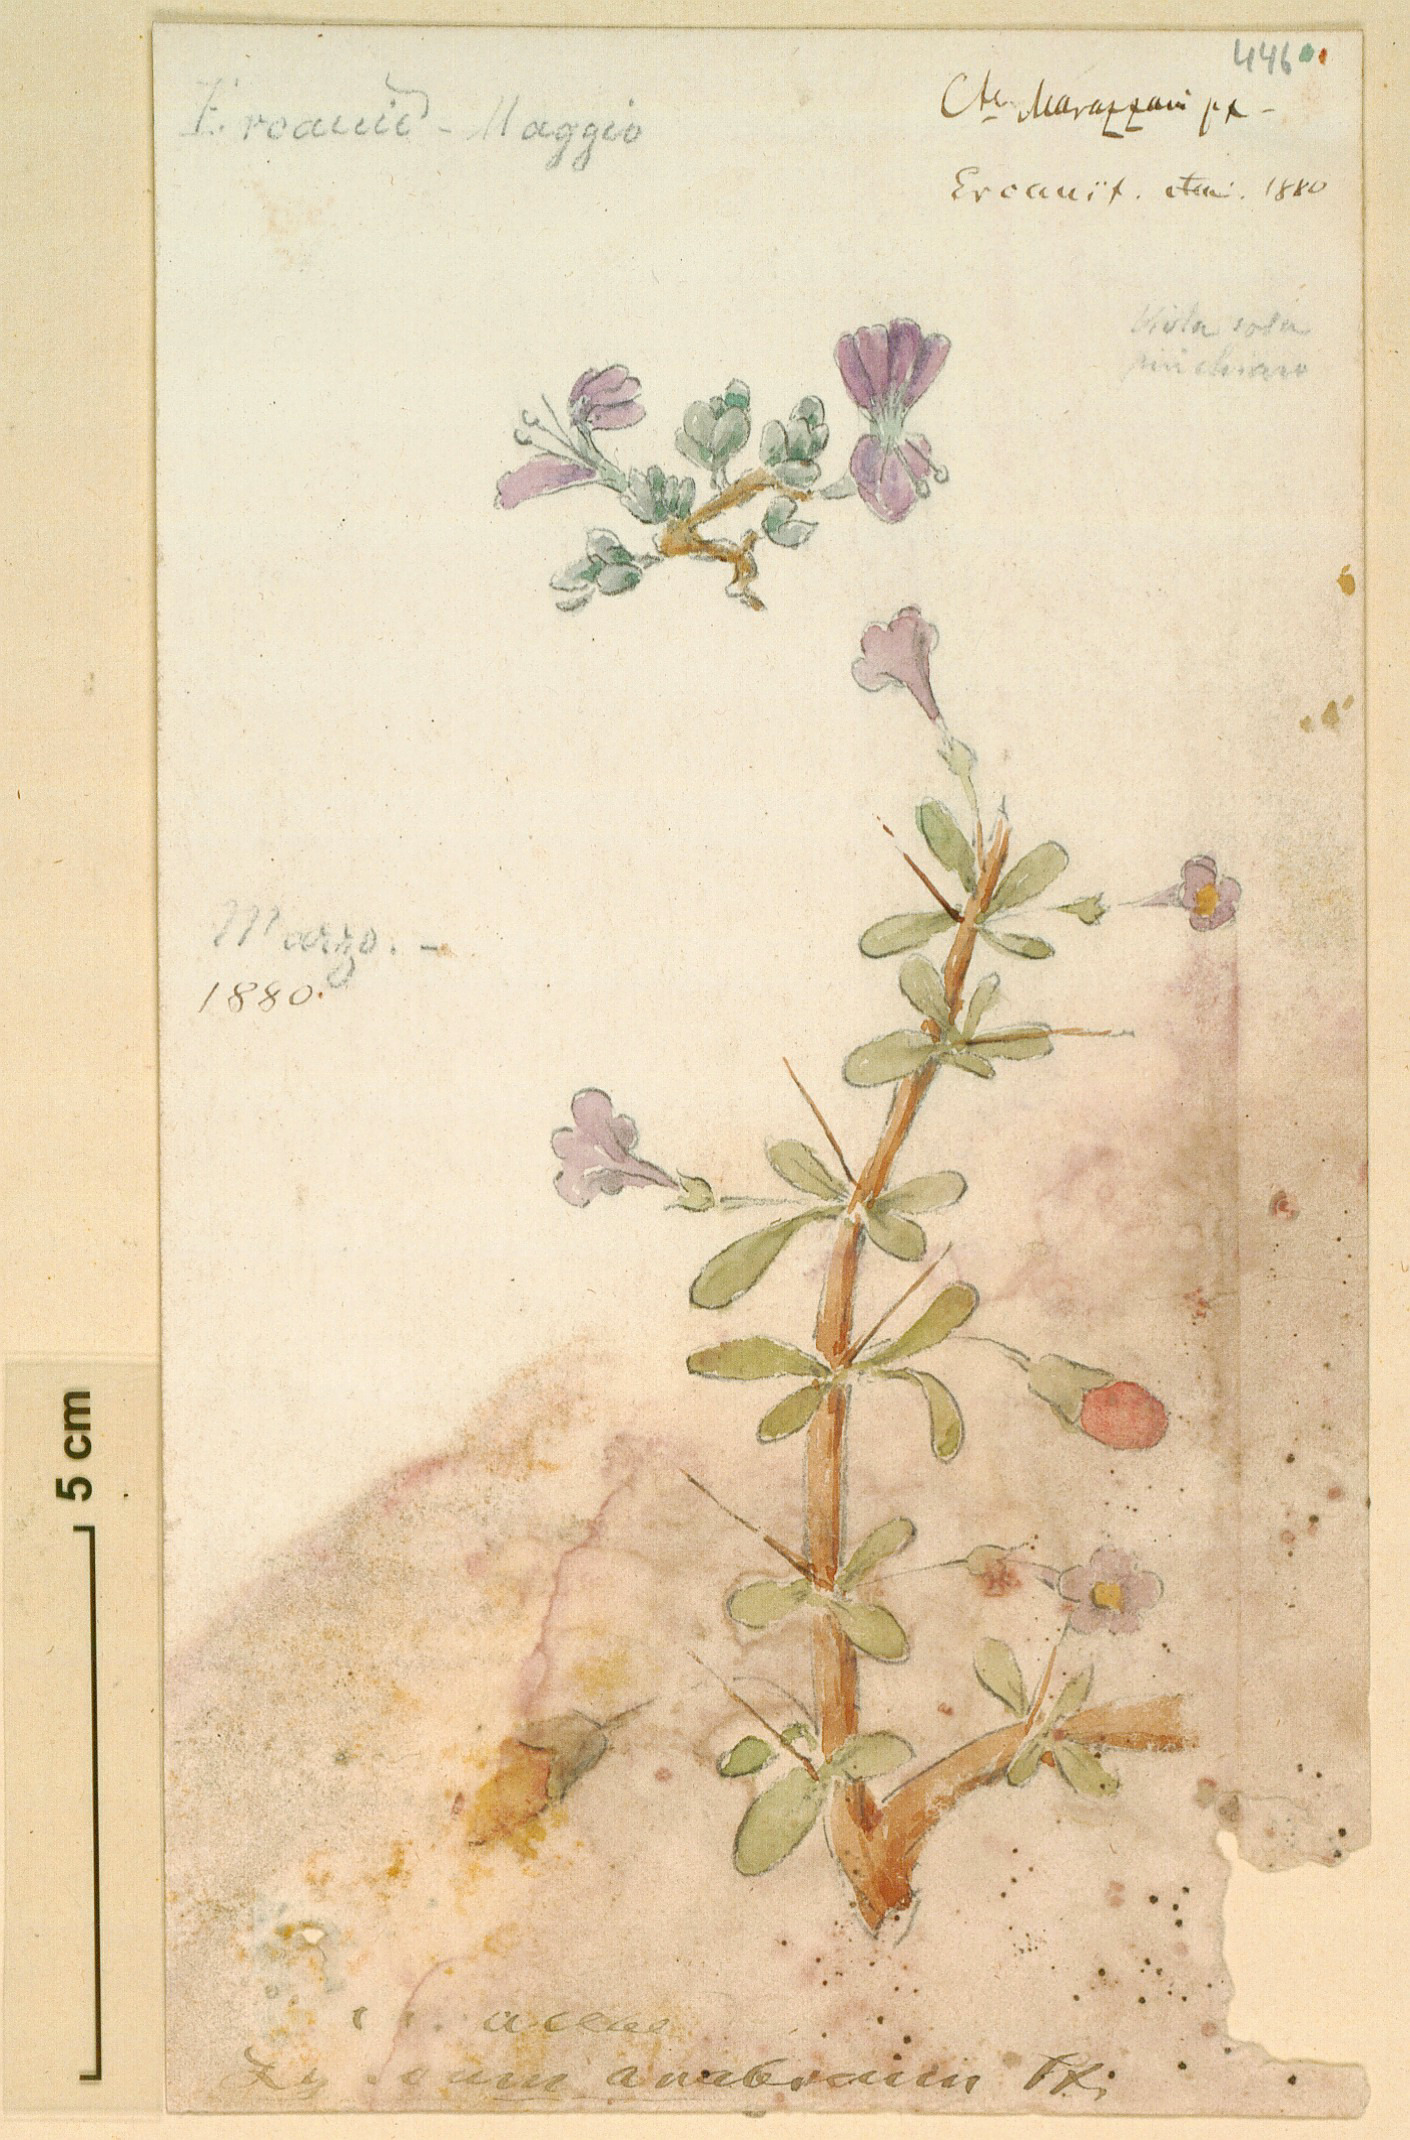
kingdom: Plantae
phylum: Tracheophyta
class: Magnoliopsida
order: Solanales
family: Solanaceae
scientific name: Solanaceae
